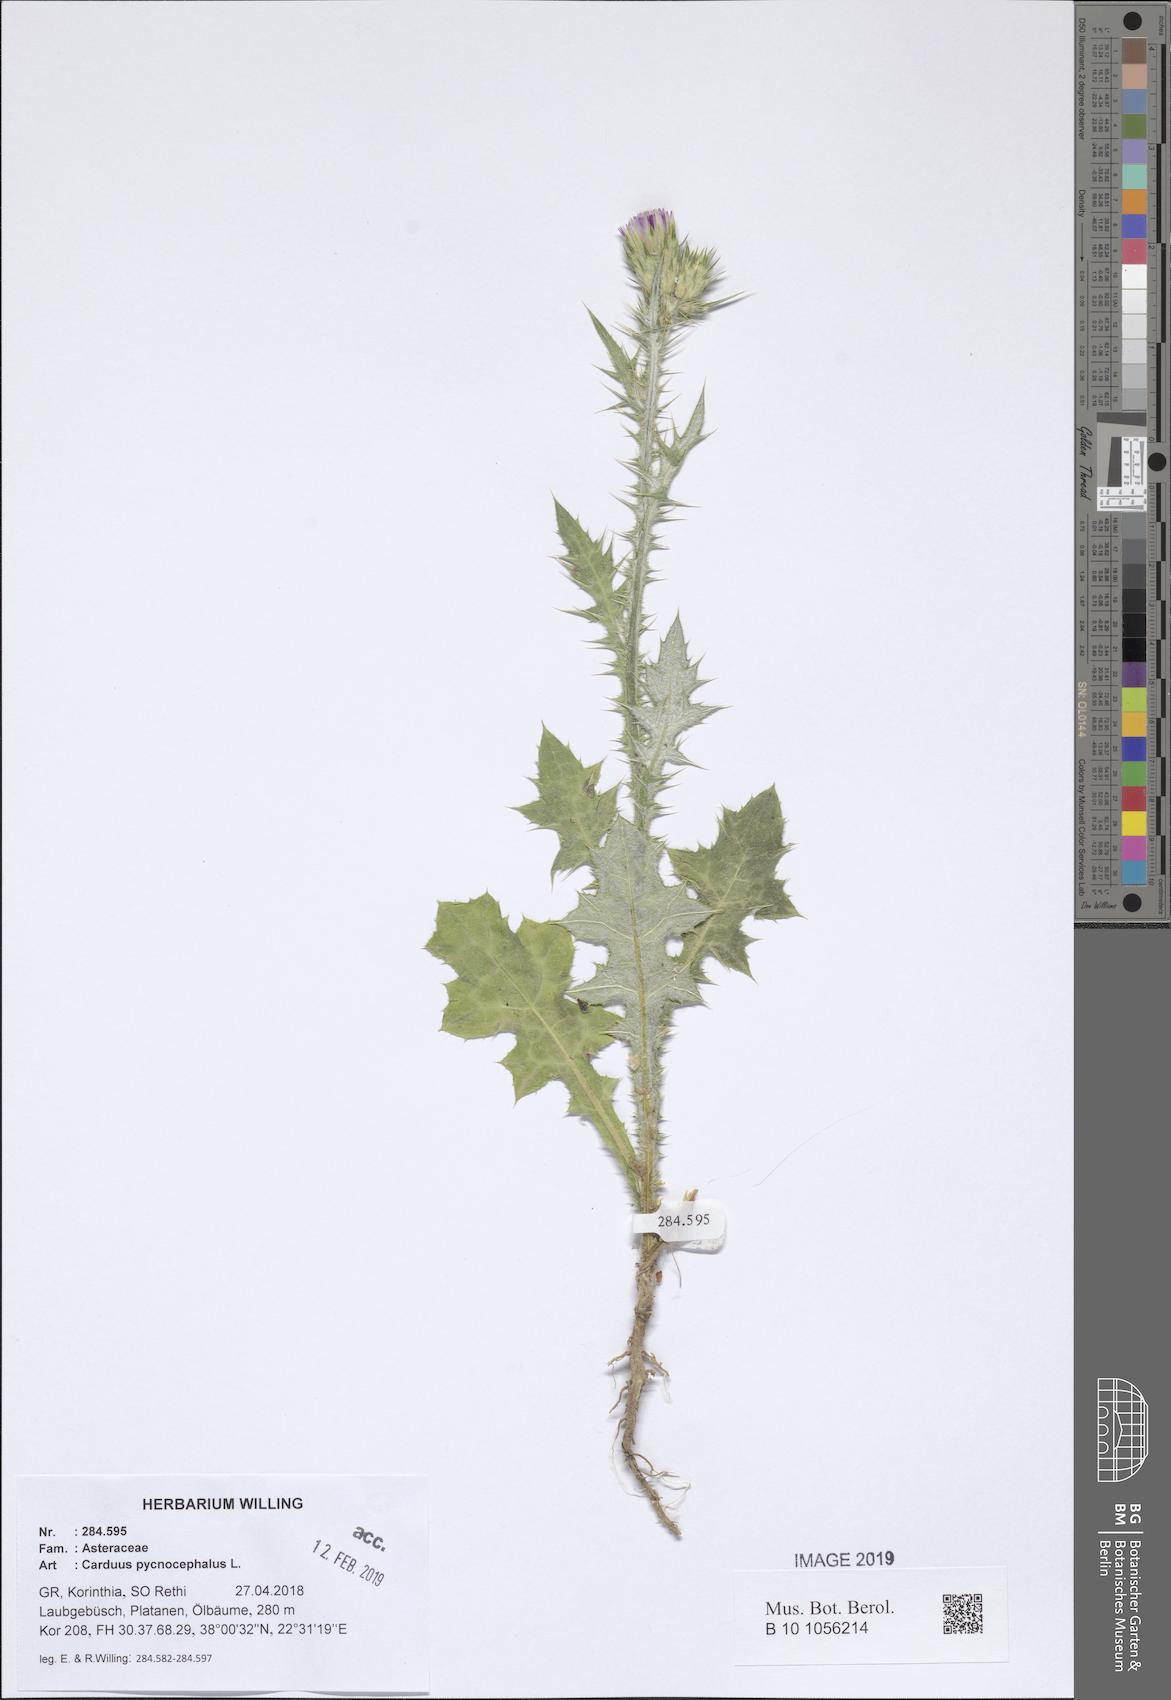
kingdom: Plantae
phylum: Tracheophyta
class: Magnoliopsida
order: Asterales
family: Asteraceae
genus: Carduus
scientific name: Carduus pycnocephalus
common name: Plymouth thistle
